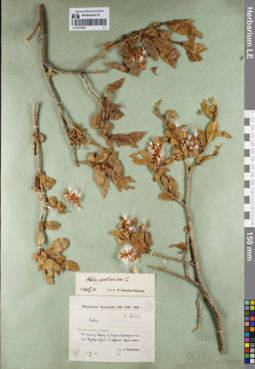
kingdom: Plantae
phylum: Tracheophyta
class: Magnoliopsida
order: Malpighiales
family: Salicaceae
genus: Salix
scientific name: Salix pseudopentandra
